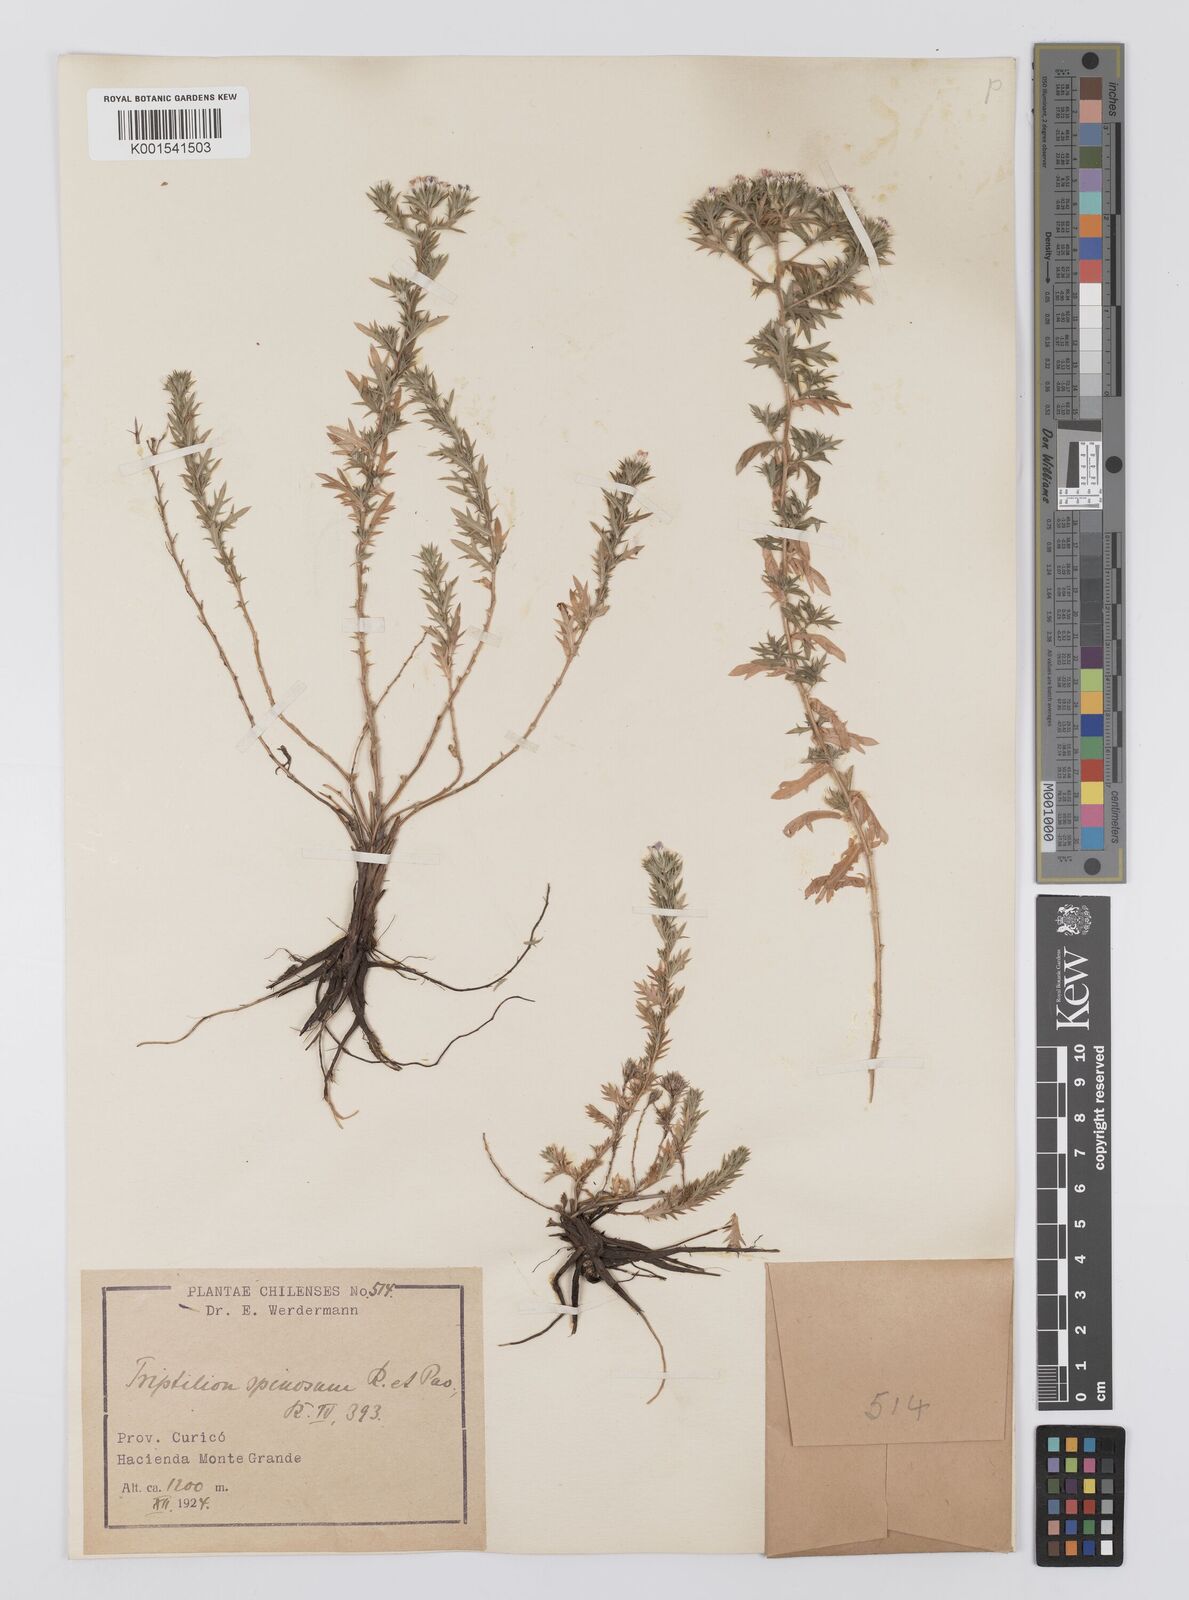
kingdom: Plantae
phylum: Tracheophyta
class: Magnoliopsida
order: Asterales
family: Asteraceae
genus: Triptilion
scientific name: Triptilion spinosum
